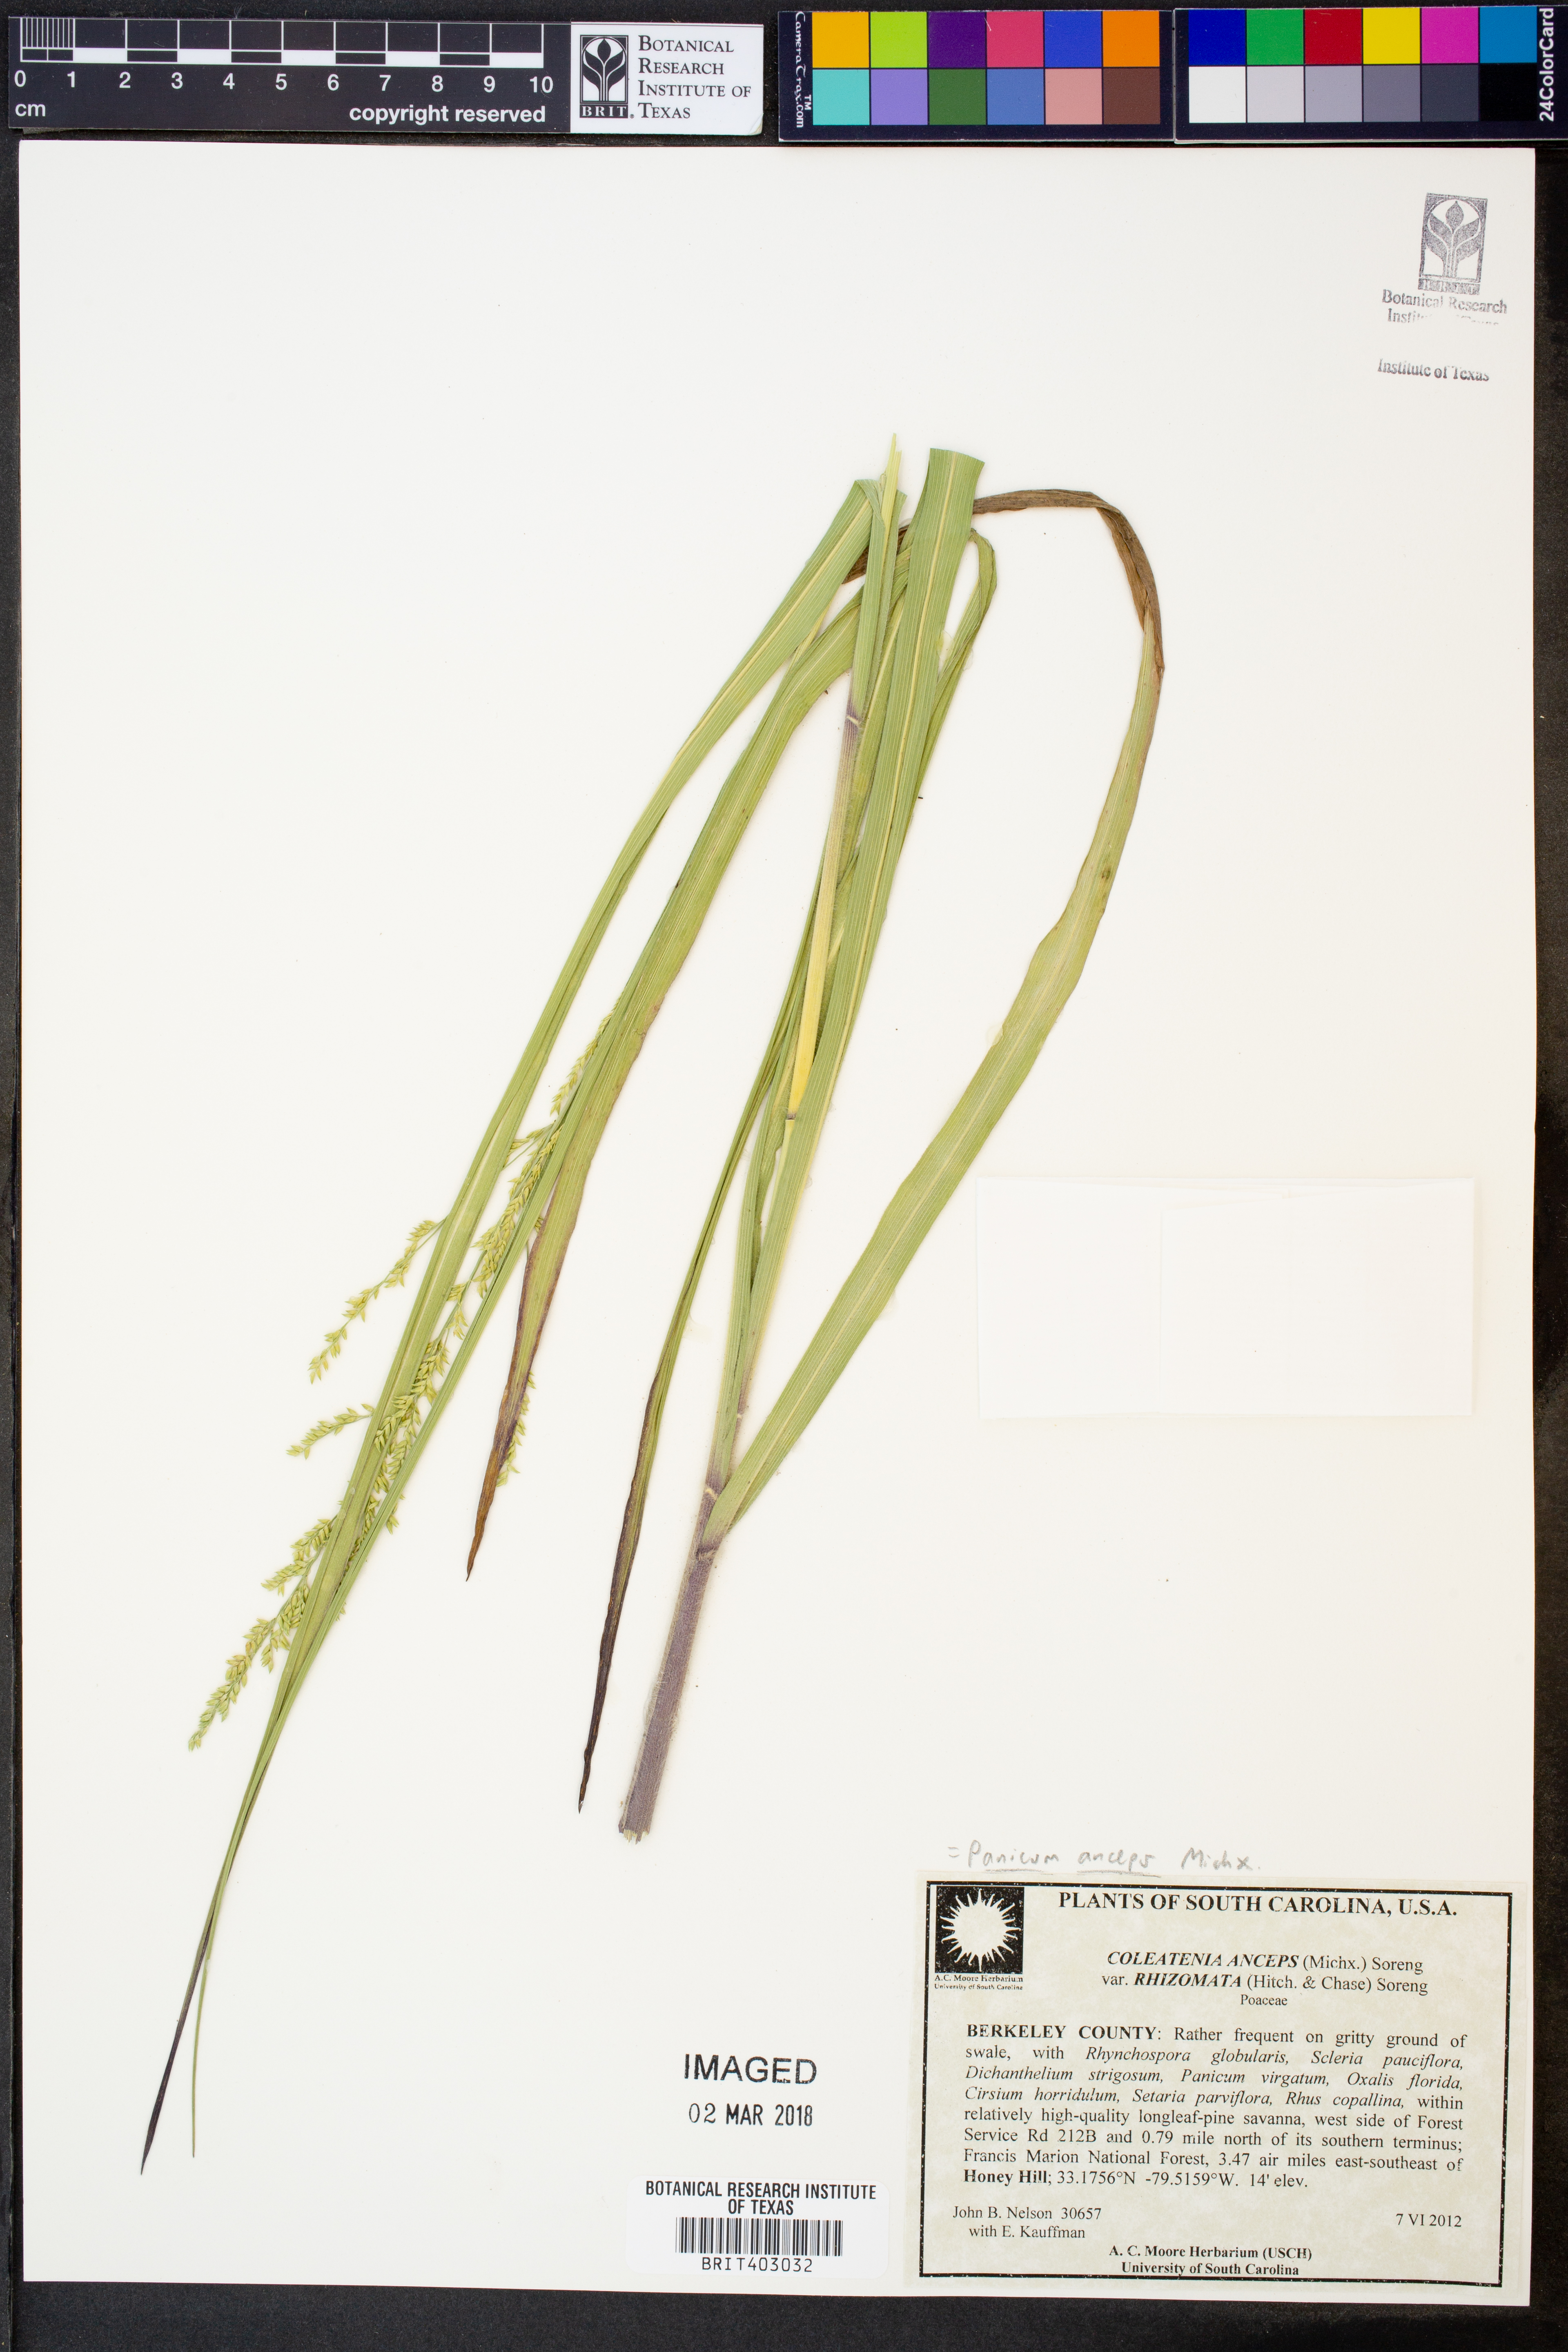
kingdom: Plantae
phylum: Tracheophyta
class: Liliopsida
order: Poales
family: Poaceae
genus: Coleataenia
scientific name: Coleataenia anceps
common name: Beaked panic grass
